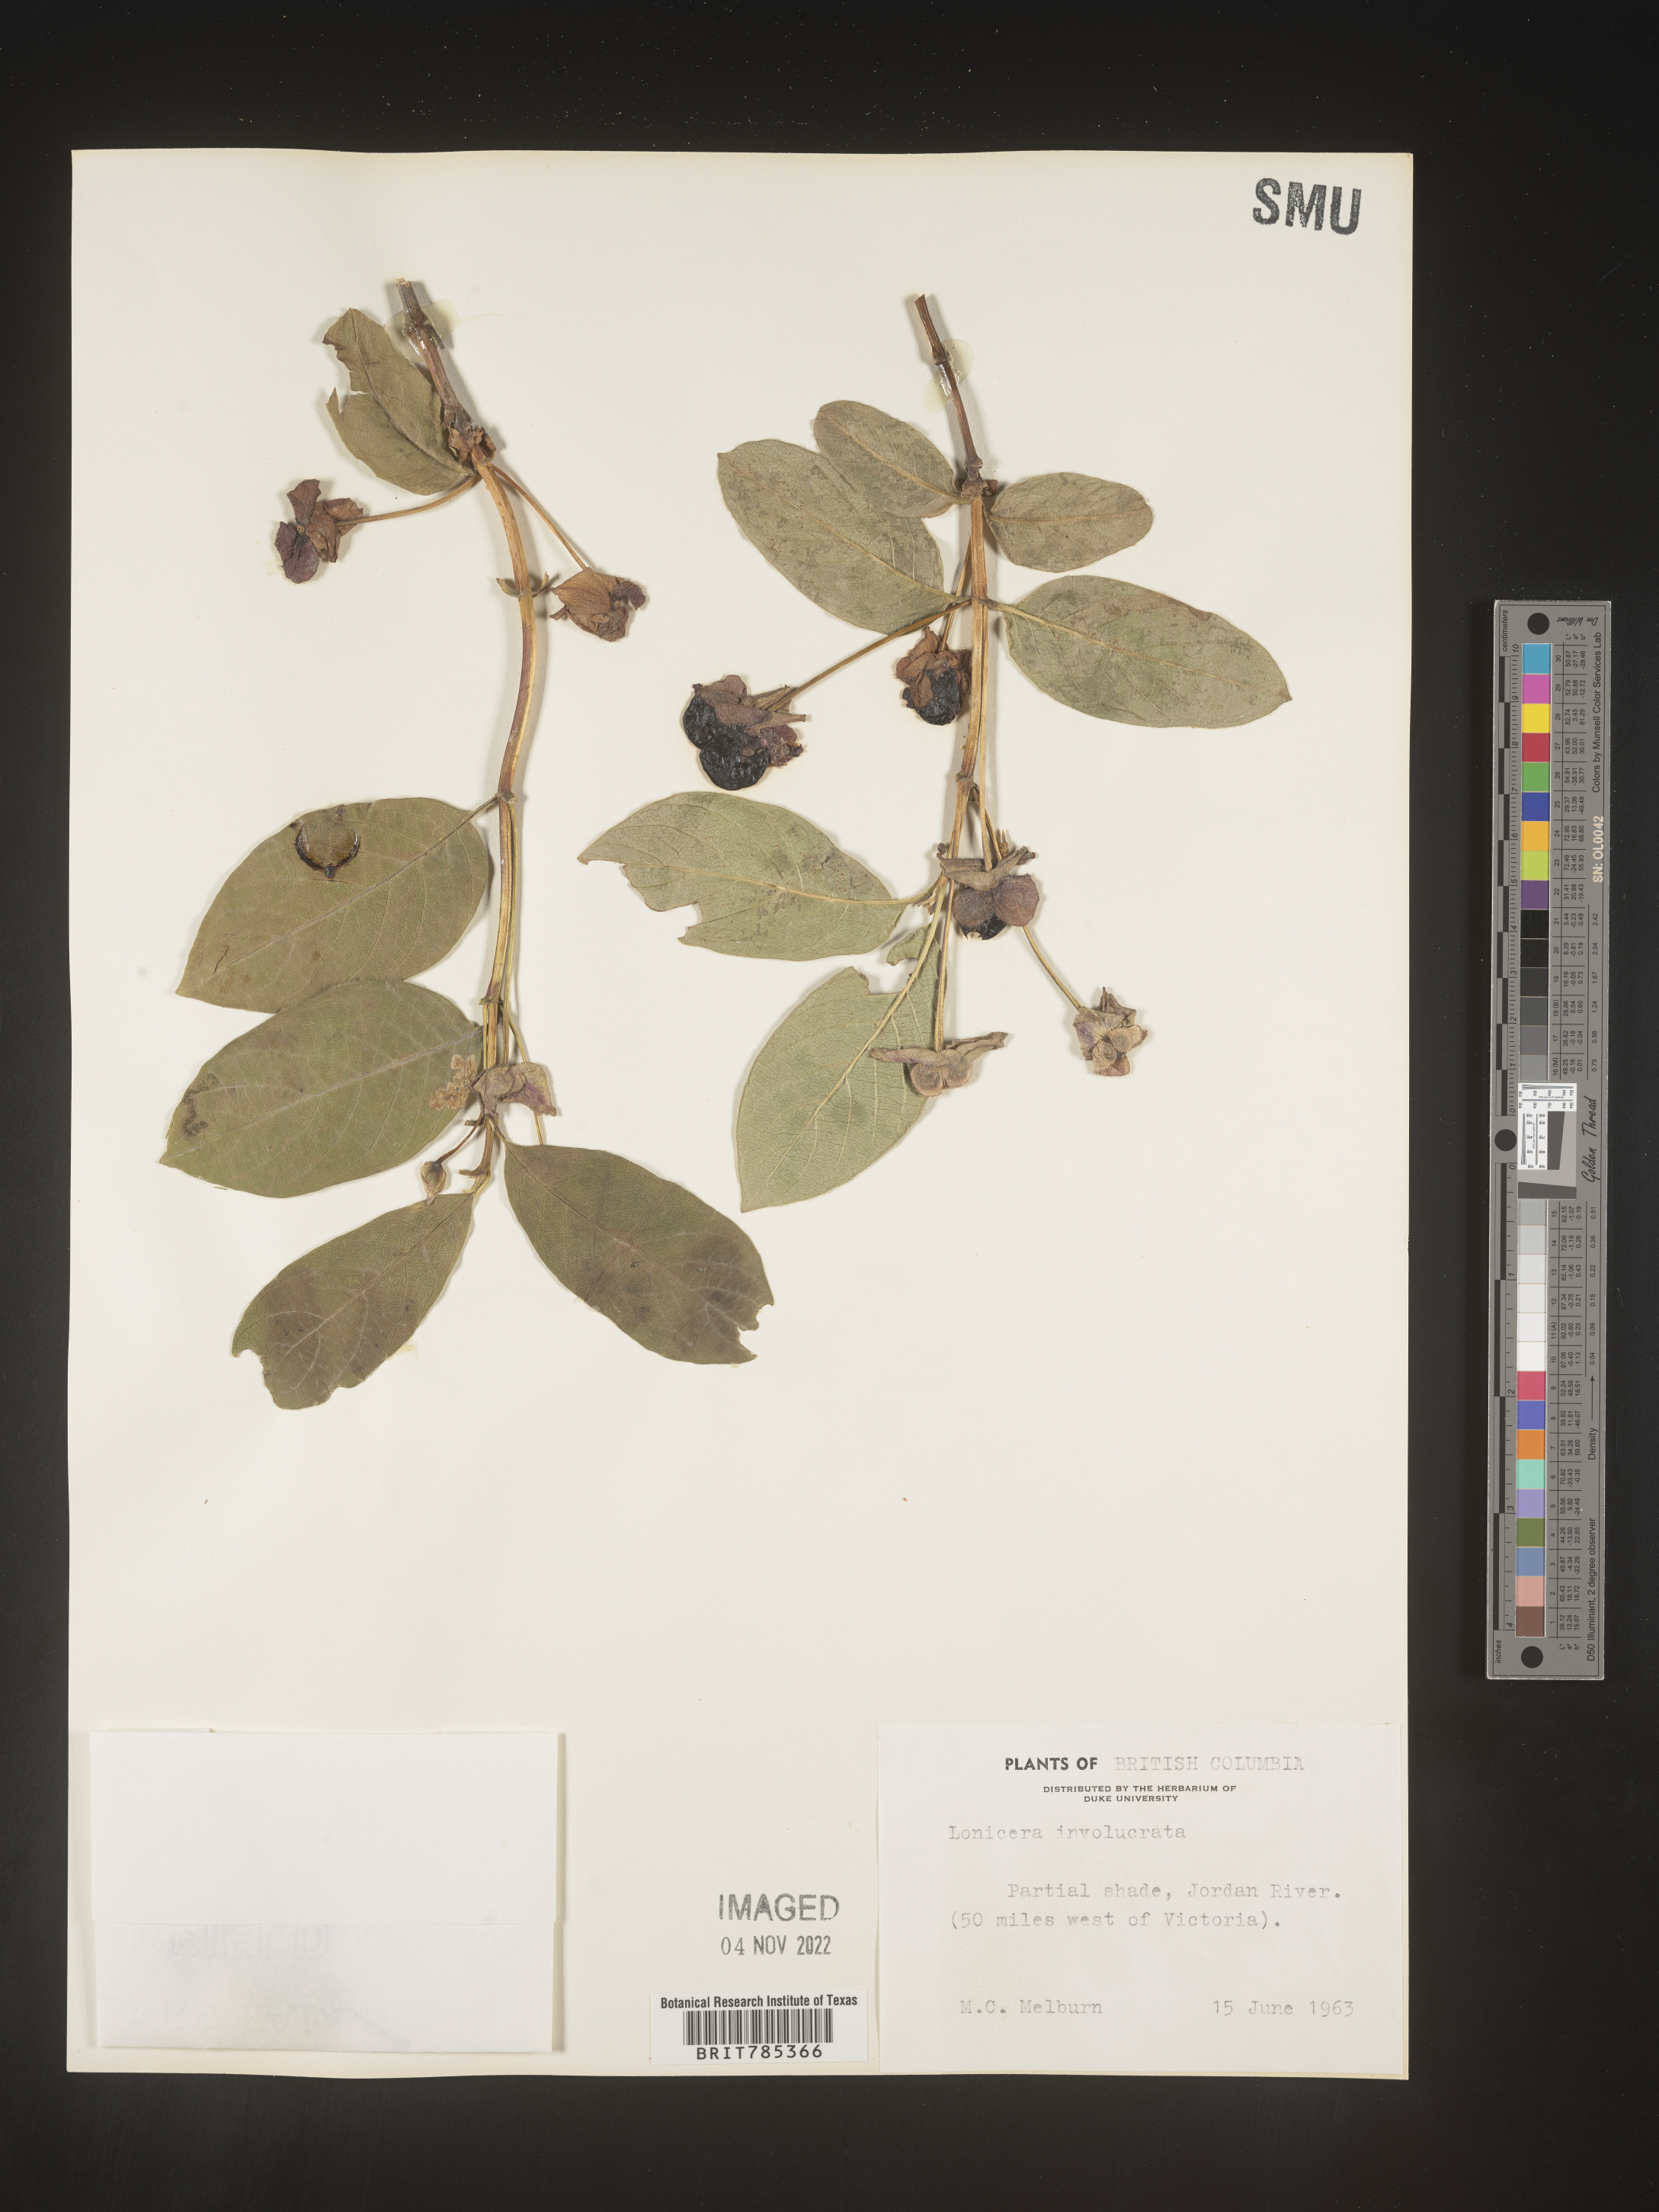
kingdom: Plantae
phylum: Tracheophyta
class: Magnoliopsida
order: Dipsacales
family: Caprifoliaceae
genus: Lonicera
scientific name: Lonicera involucrata
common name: Californian honeysuckle
